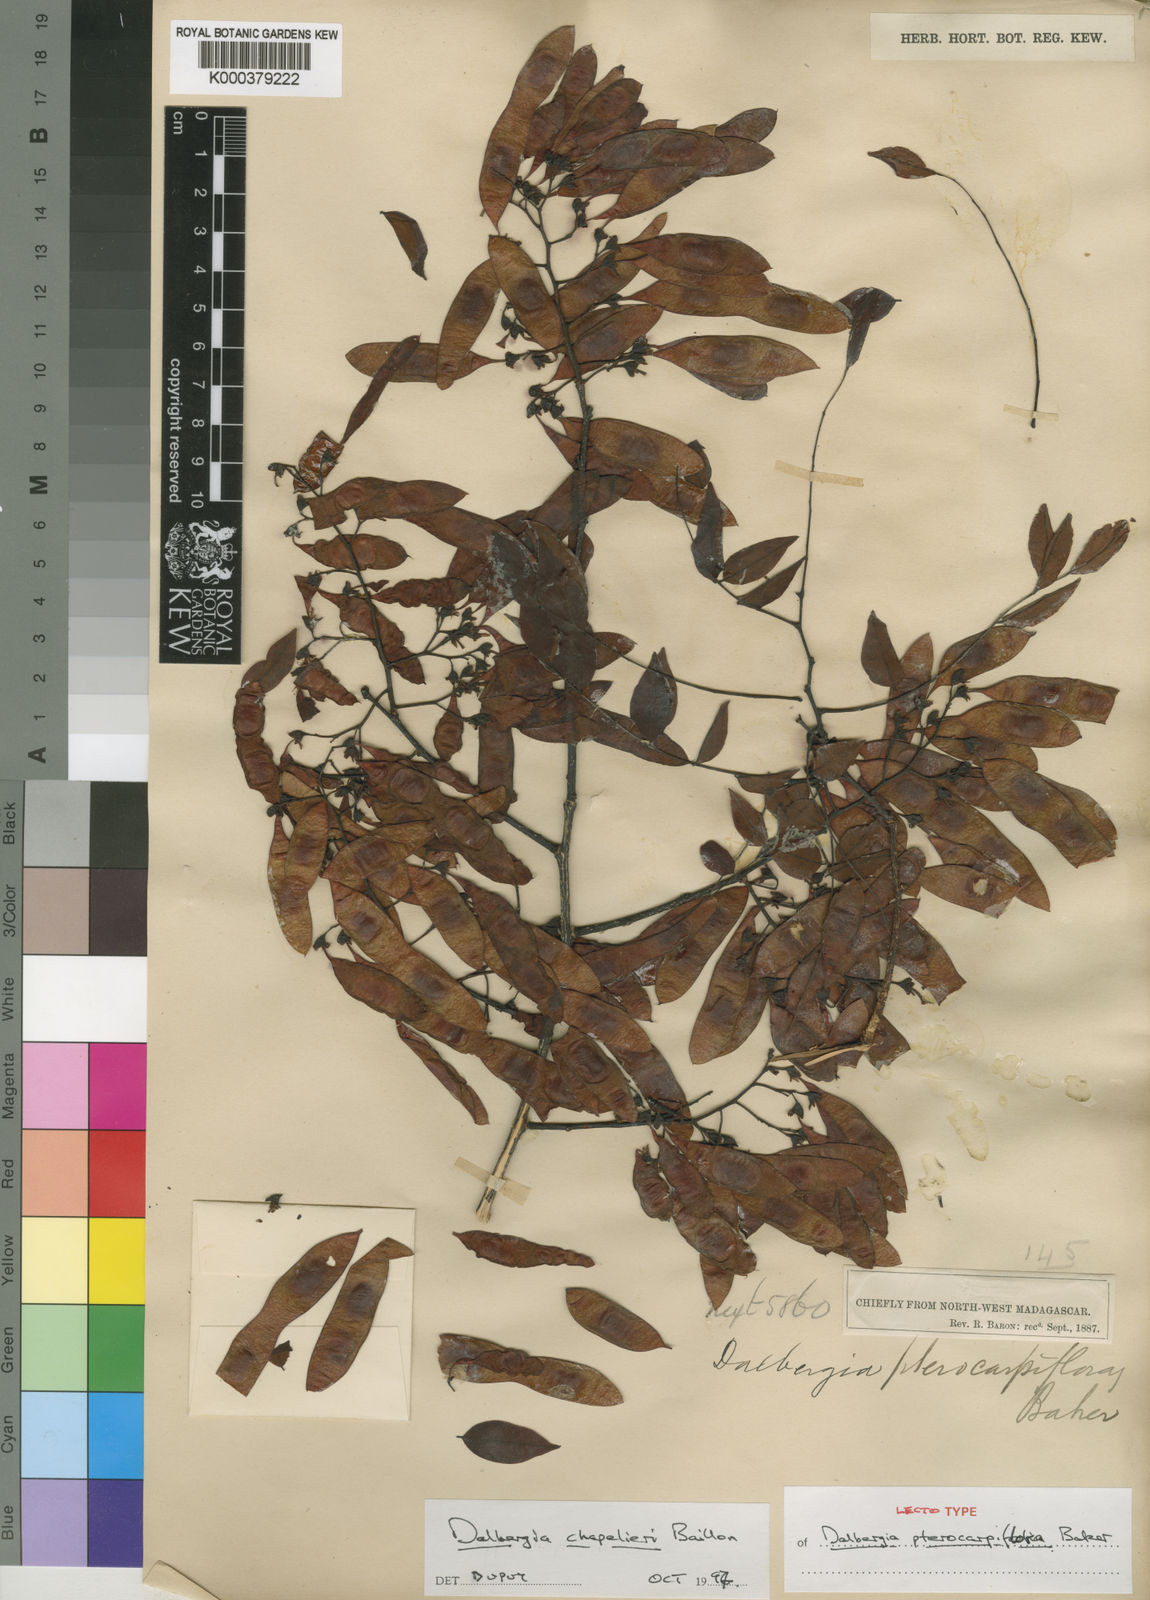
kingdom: Plantae
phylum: Tracheophyta
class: Magnoliopsida
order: Fabales
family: Fabaceae
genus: Dalbergia
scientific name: Dalbergia chapelieri
